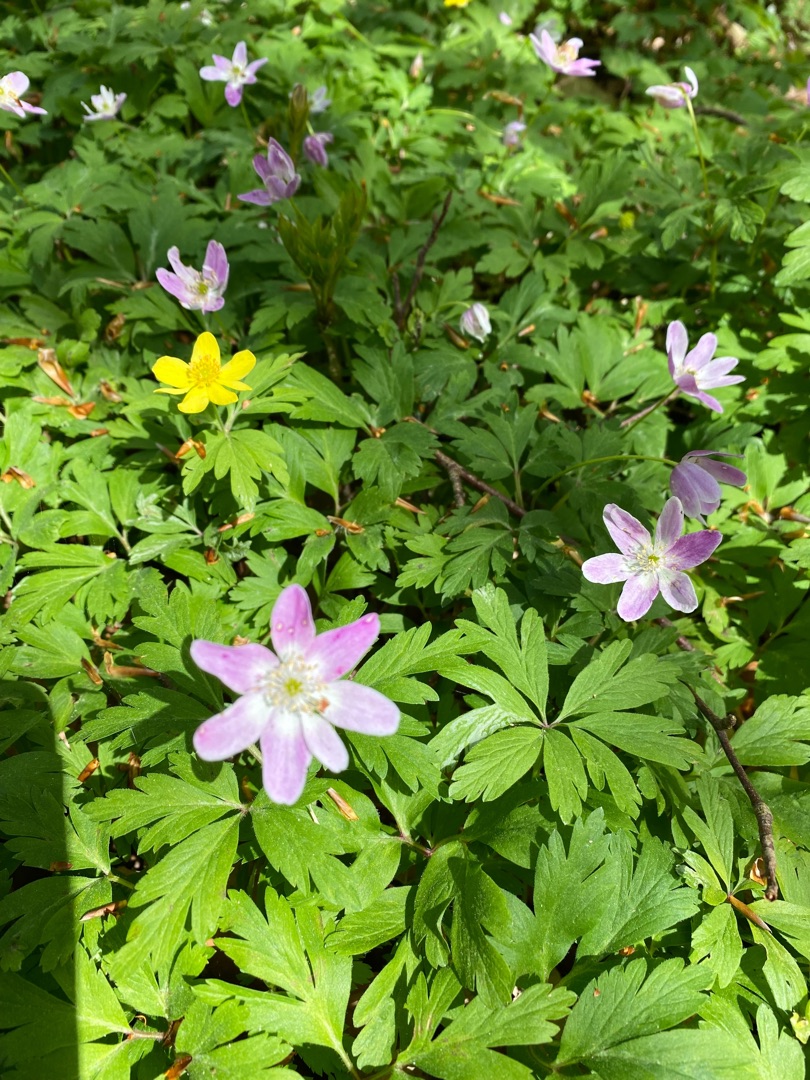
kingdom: Plantae
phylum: Tracheophyta
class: Magnoliopsida
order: Ranunculales
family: Ranunculaceae
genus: Anemone
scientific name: Anemone nemorosa
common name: Hvid anemone
